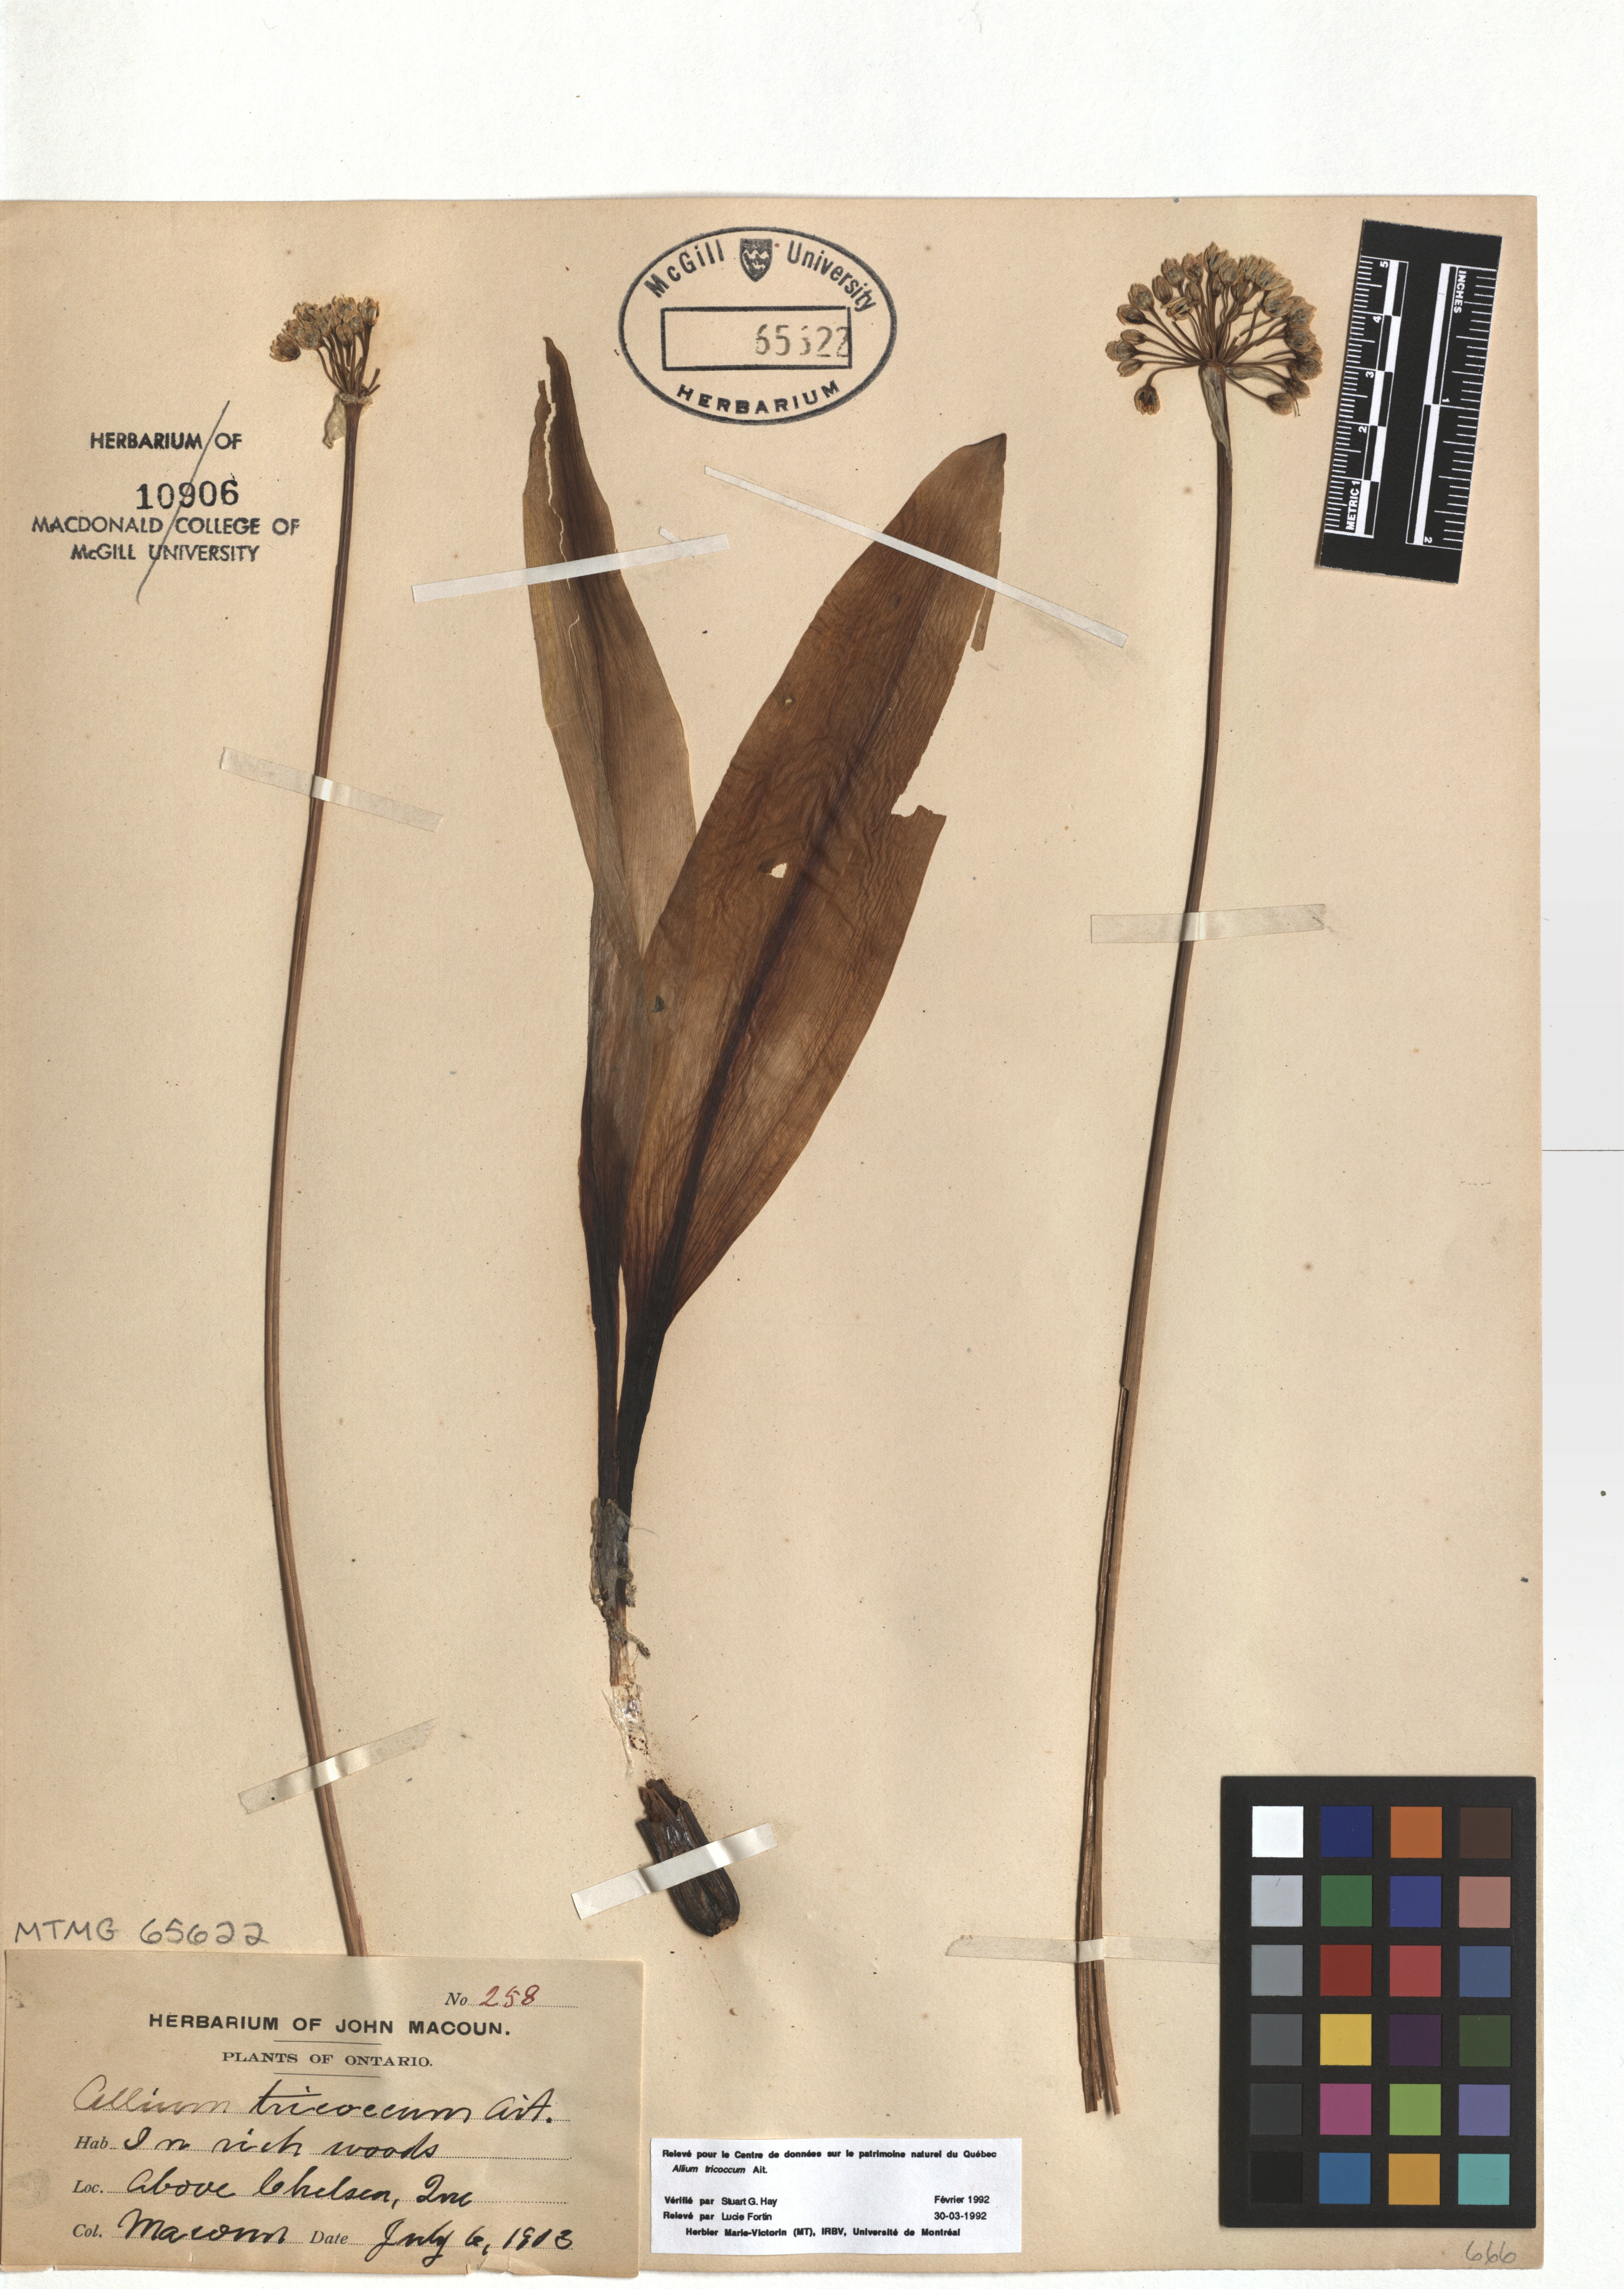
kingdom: Plantae
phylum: Tracheophyta
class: Liliopsida
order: Asparagales
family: Amaryllidaceae
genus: Allium
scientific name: Allium tricoccum
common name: Ramp
